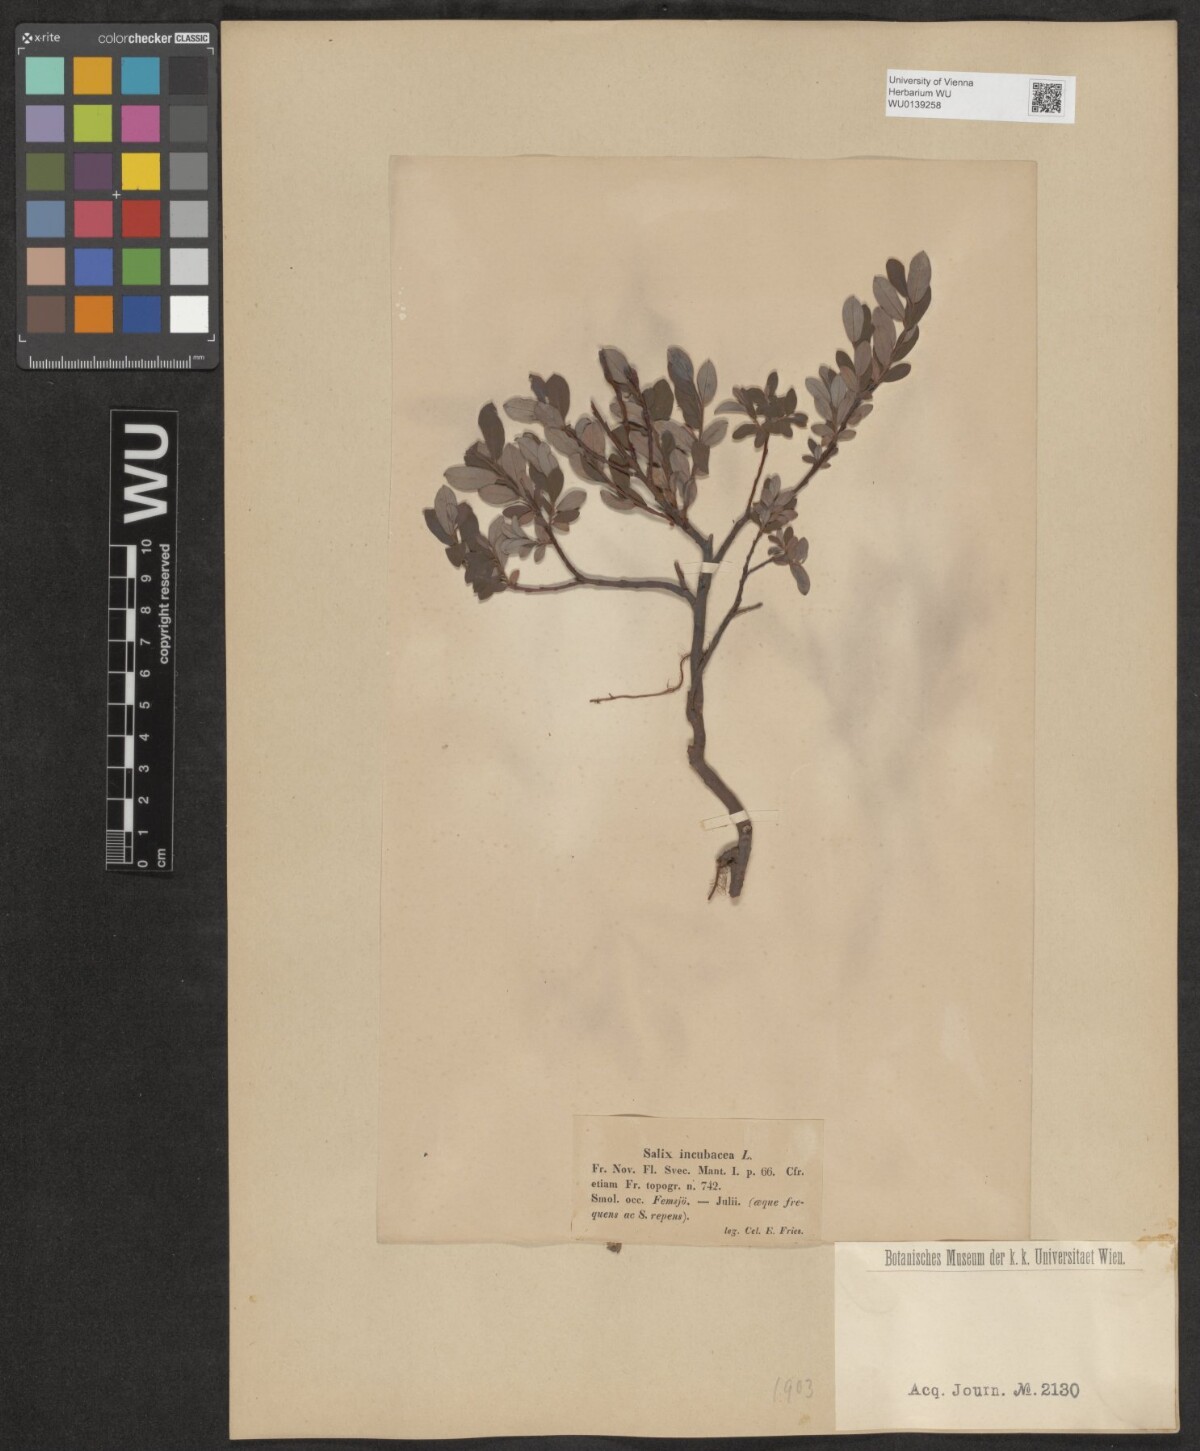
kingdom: Plantae
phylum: Tracheophyta
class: Magnoliopsida
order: Malpighiales
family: Salicaceae
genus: Salix
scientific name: Salix repens
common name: Creeping willow
